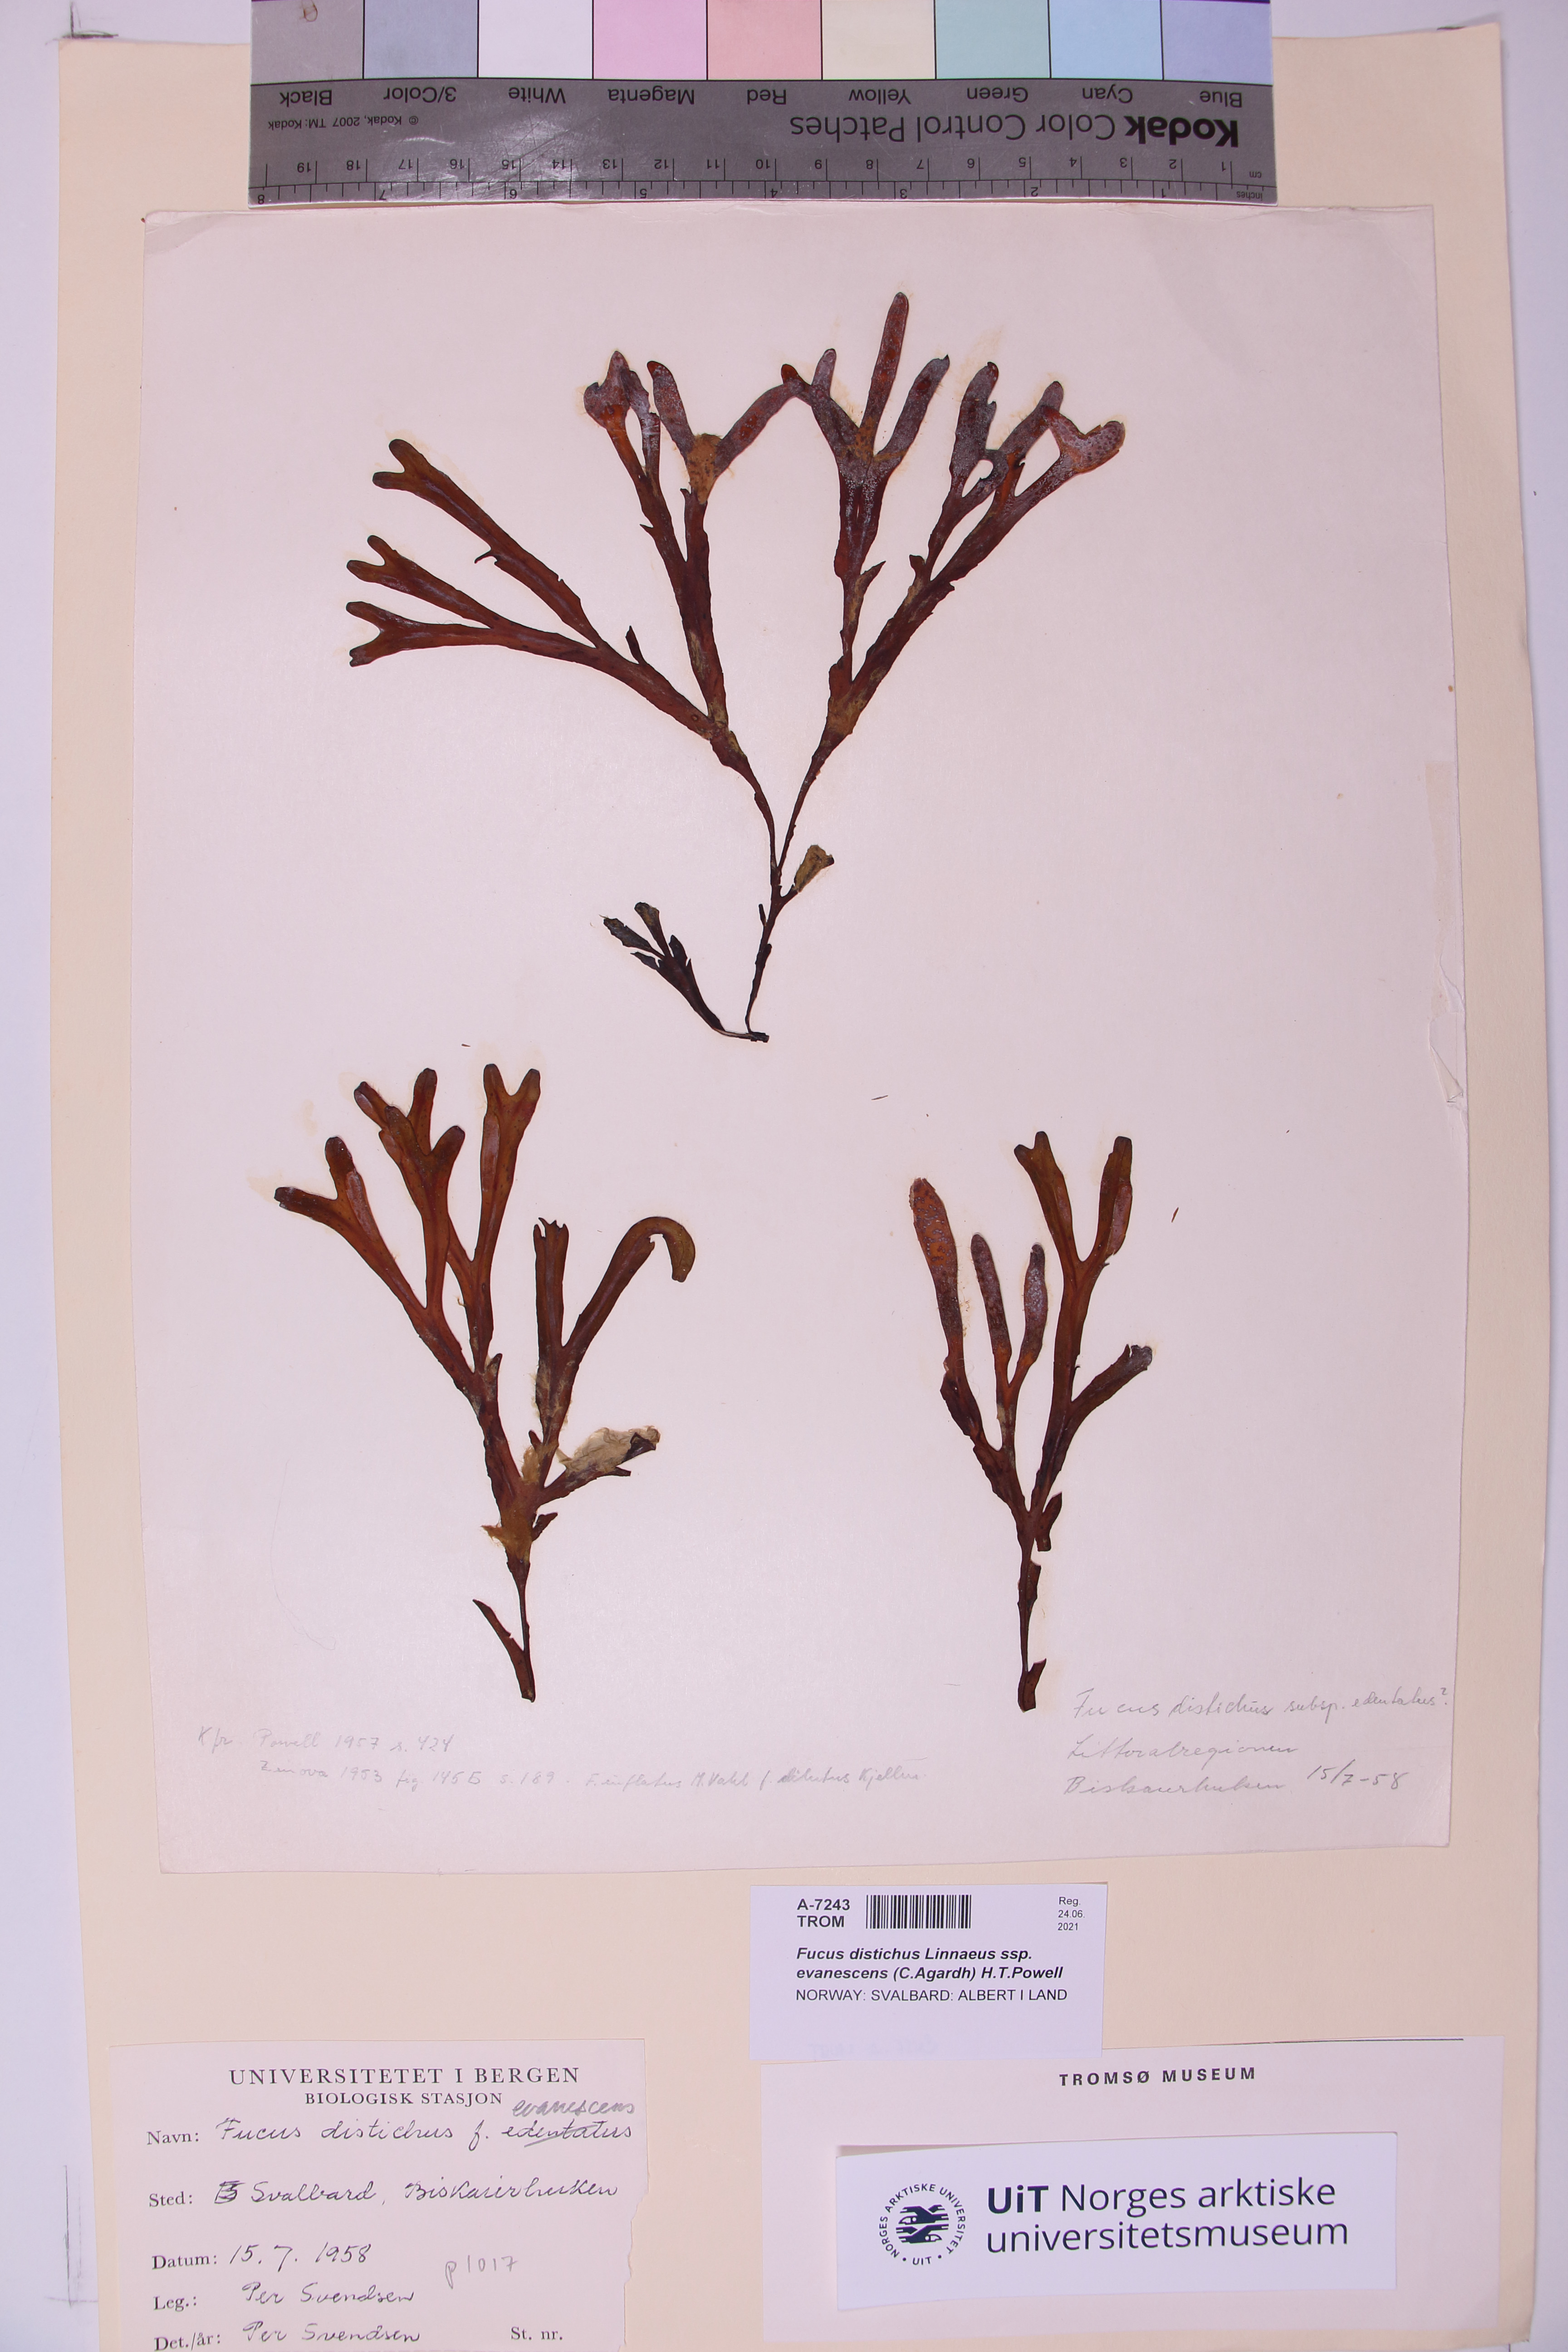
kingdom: Chromista
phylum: Ochrophyta
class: Phaeophyceae
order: Fucales
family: Fucaceae
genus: Fucus
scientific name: Fucus evanescens
